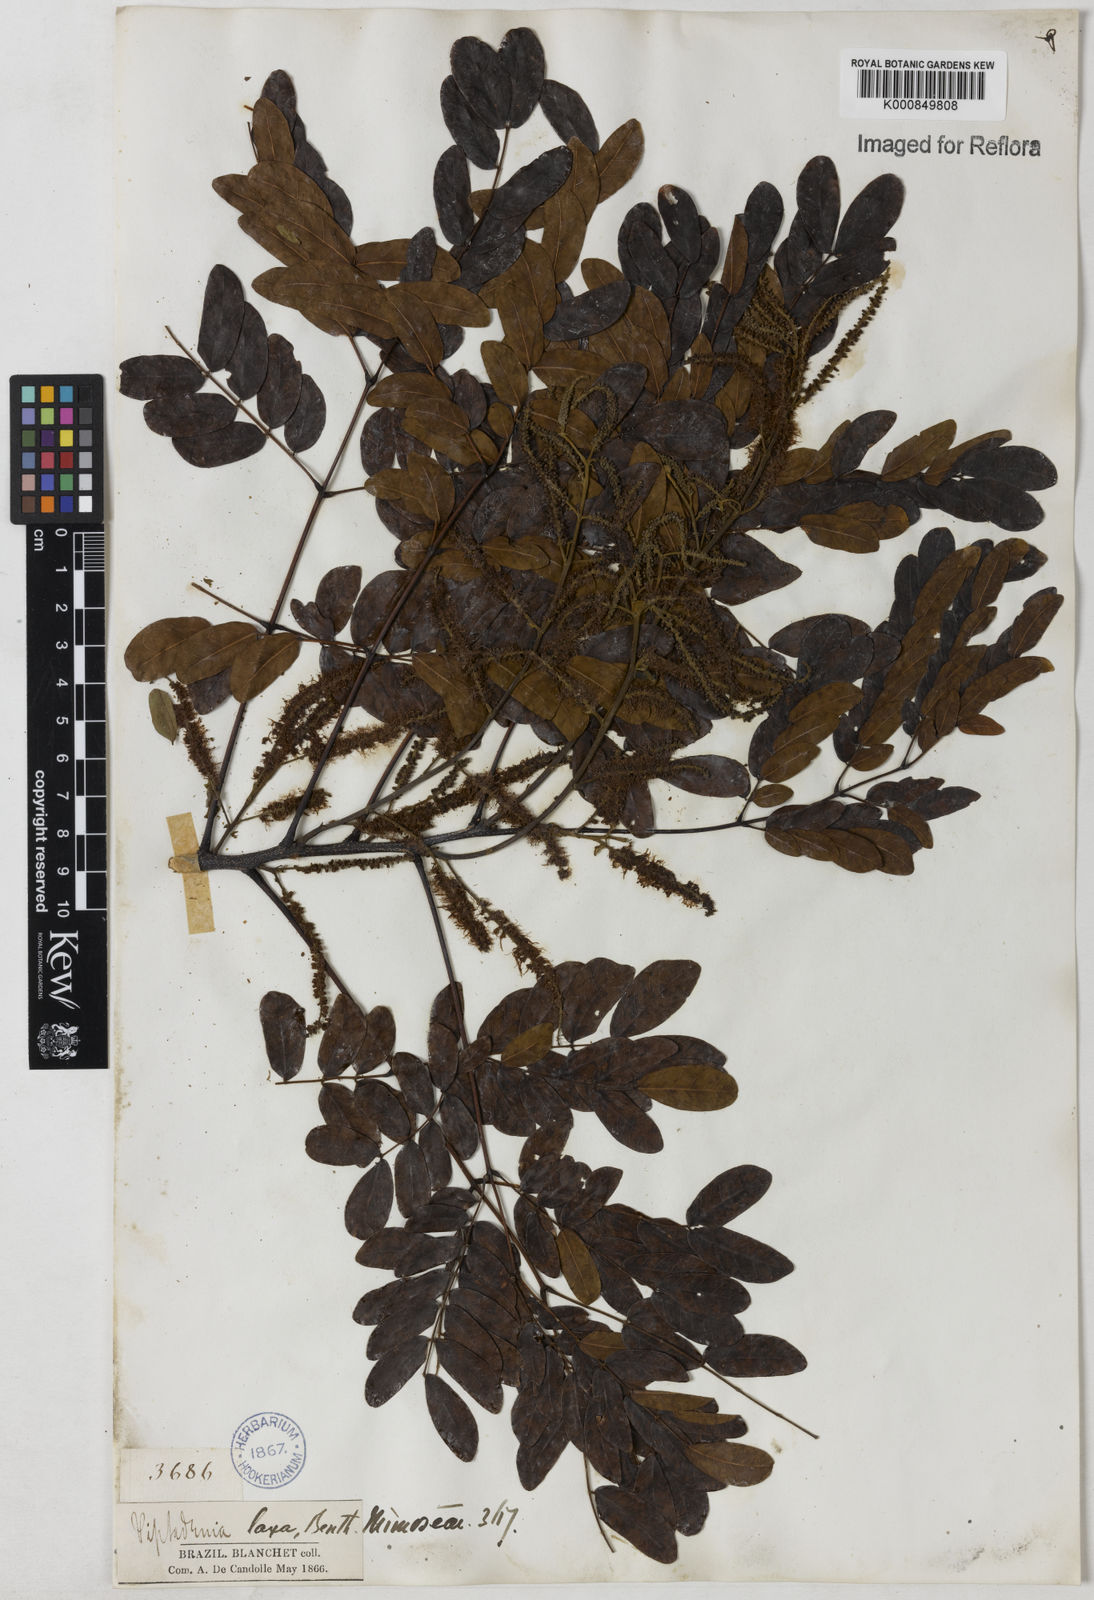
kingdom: Plantae
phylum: Tracheophyta
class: Magnoliopsida
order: Fabales
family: Fabaceae
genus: Piptadenia
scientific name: Piptadenia adiantoides
